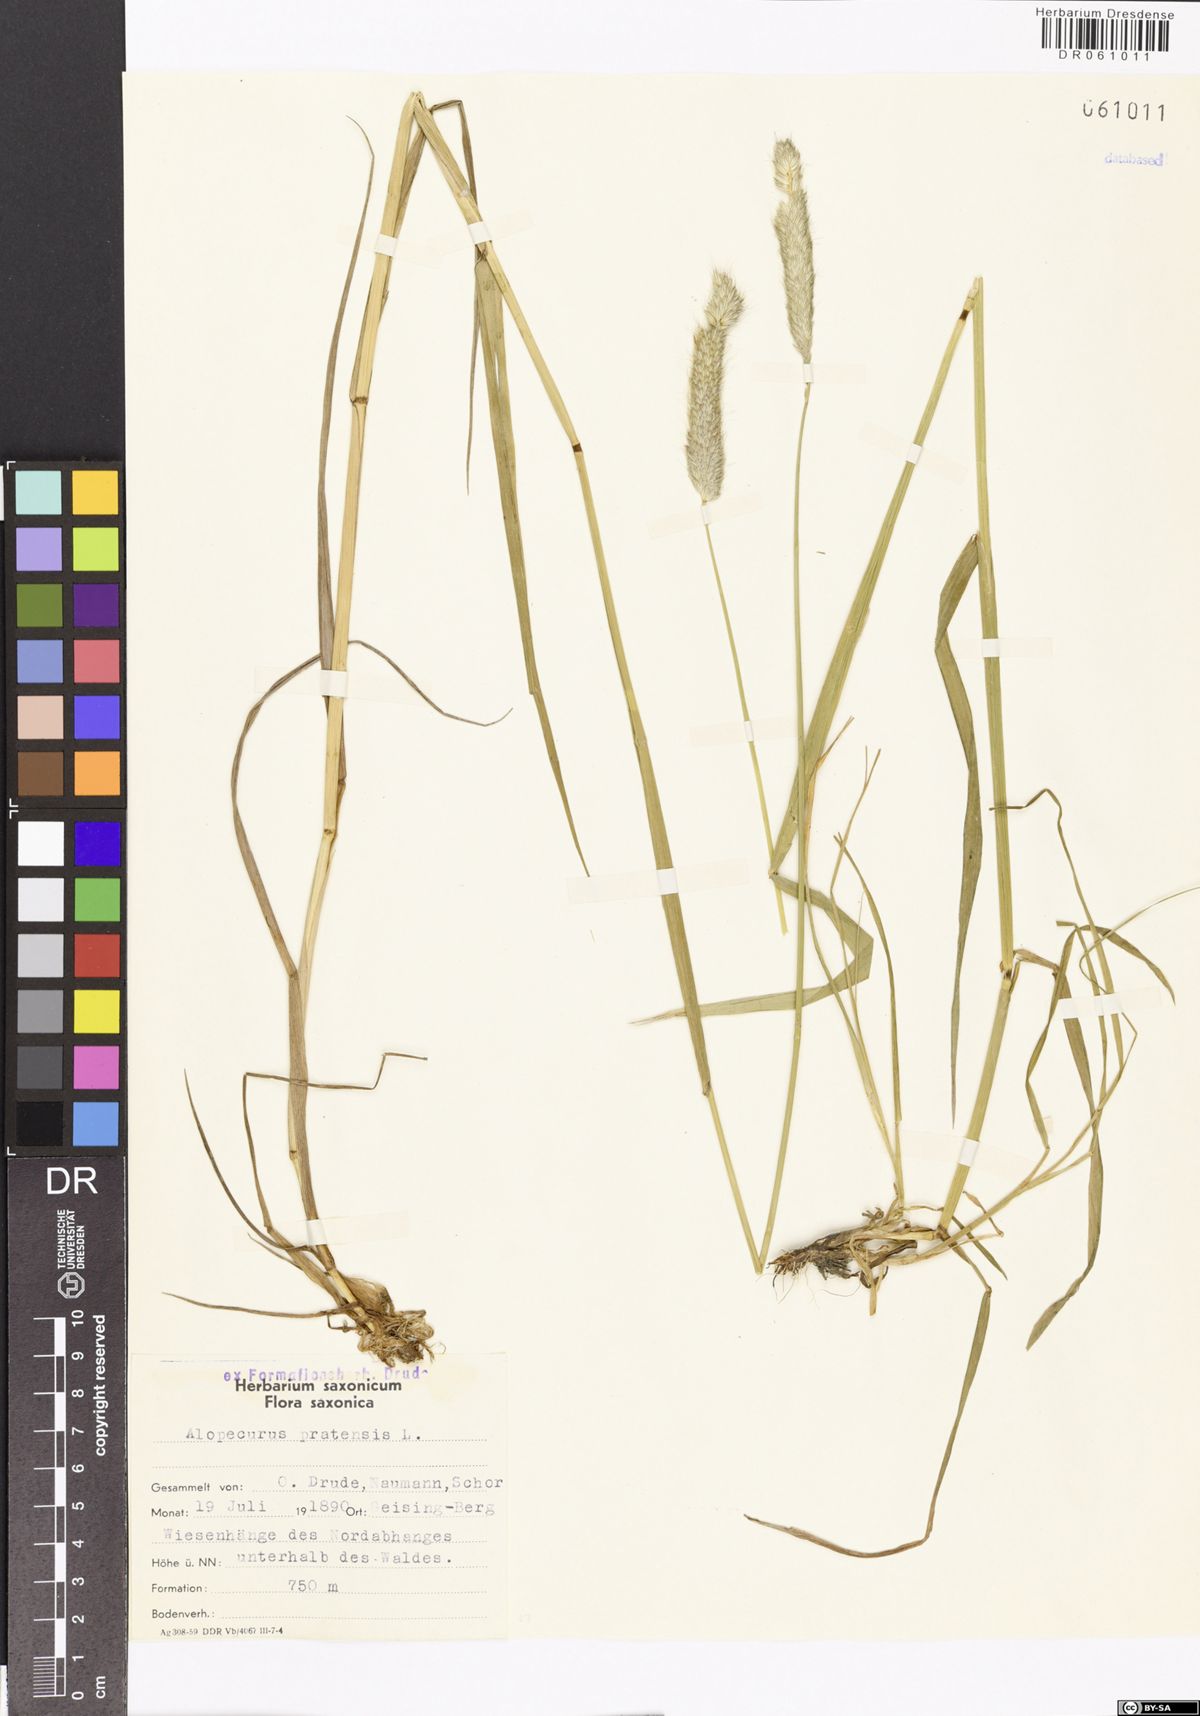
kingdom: Plantae
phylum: Tracheophyta
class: Liliopsida
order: Poales
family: Poaceae
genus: Alopecurus
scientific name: Alopecurus pratensis
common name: Meadow foxtail
